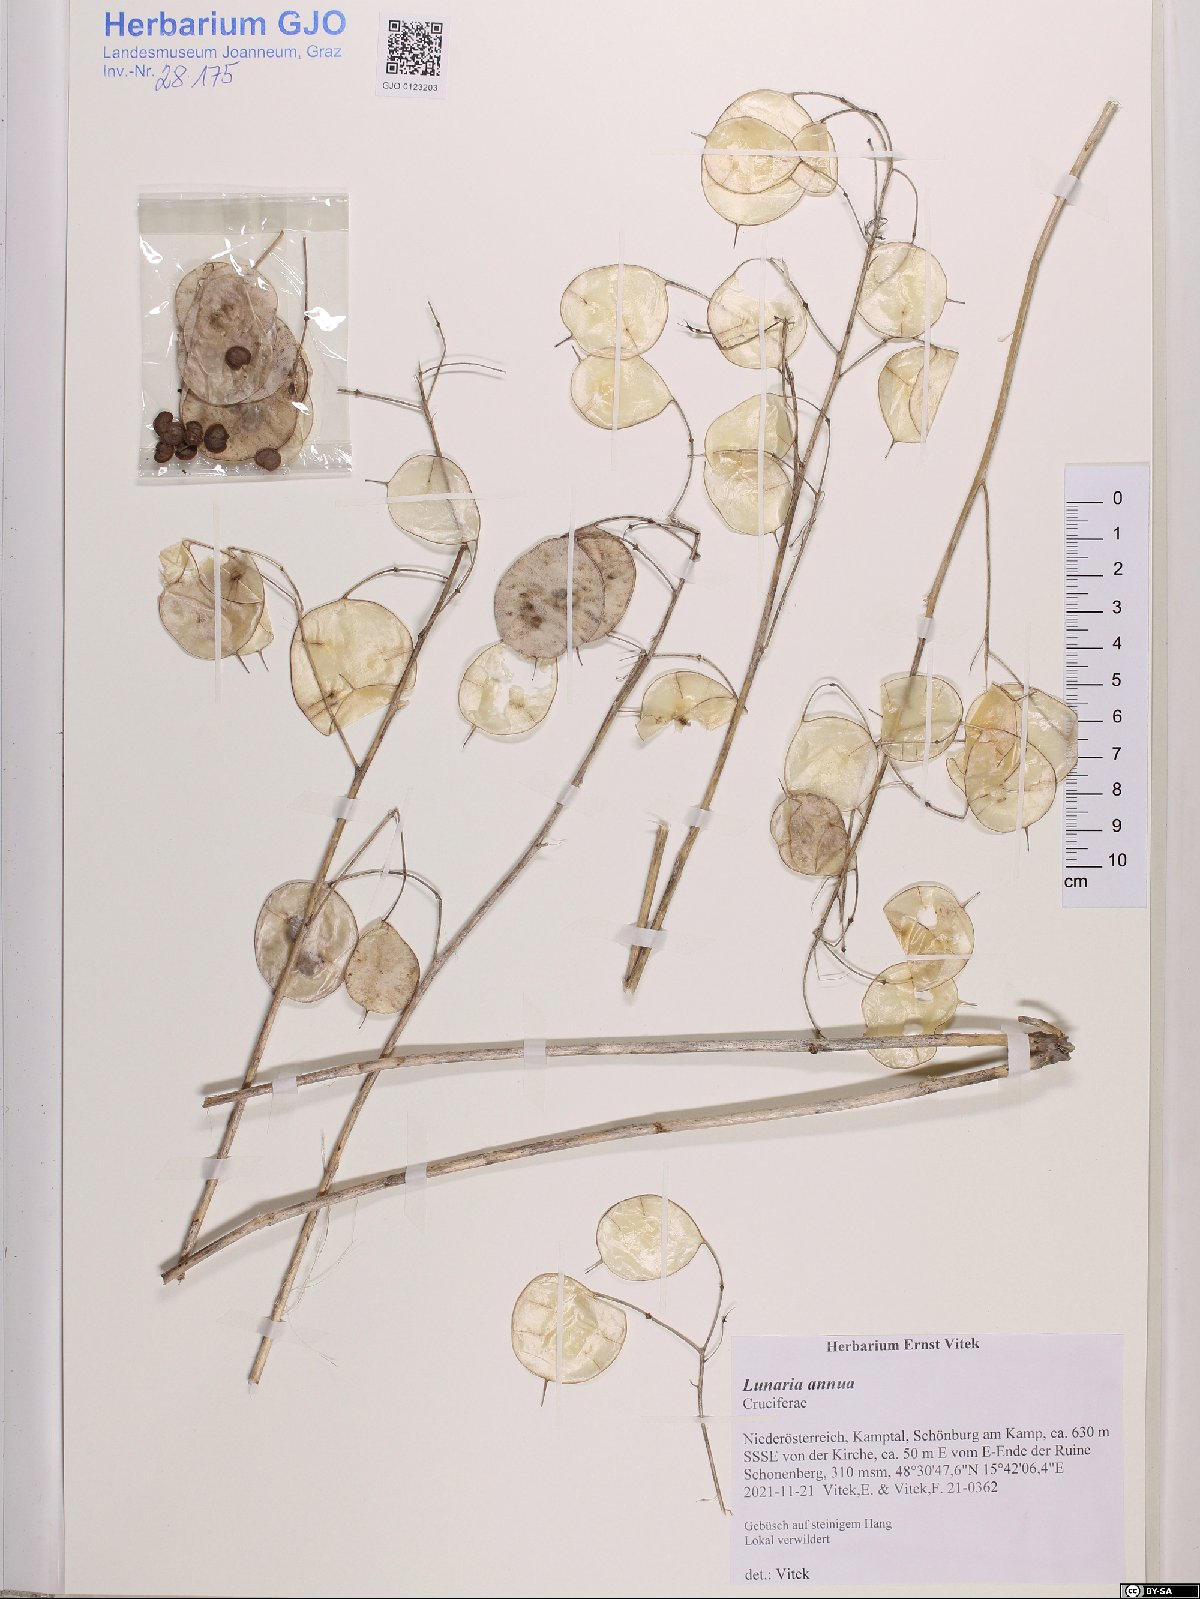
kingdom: Plantae
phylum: Tracheophyta
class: Magnoliopsida
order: Brassicales
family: Brassicaceae
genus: Lunaria
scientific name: Lunaria annua
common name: Honesty
